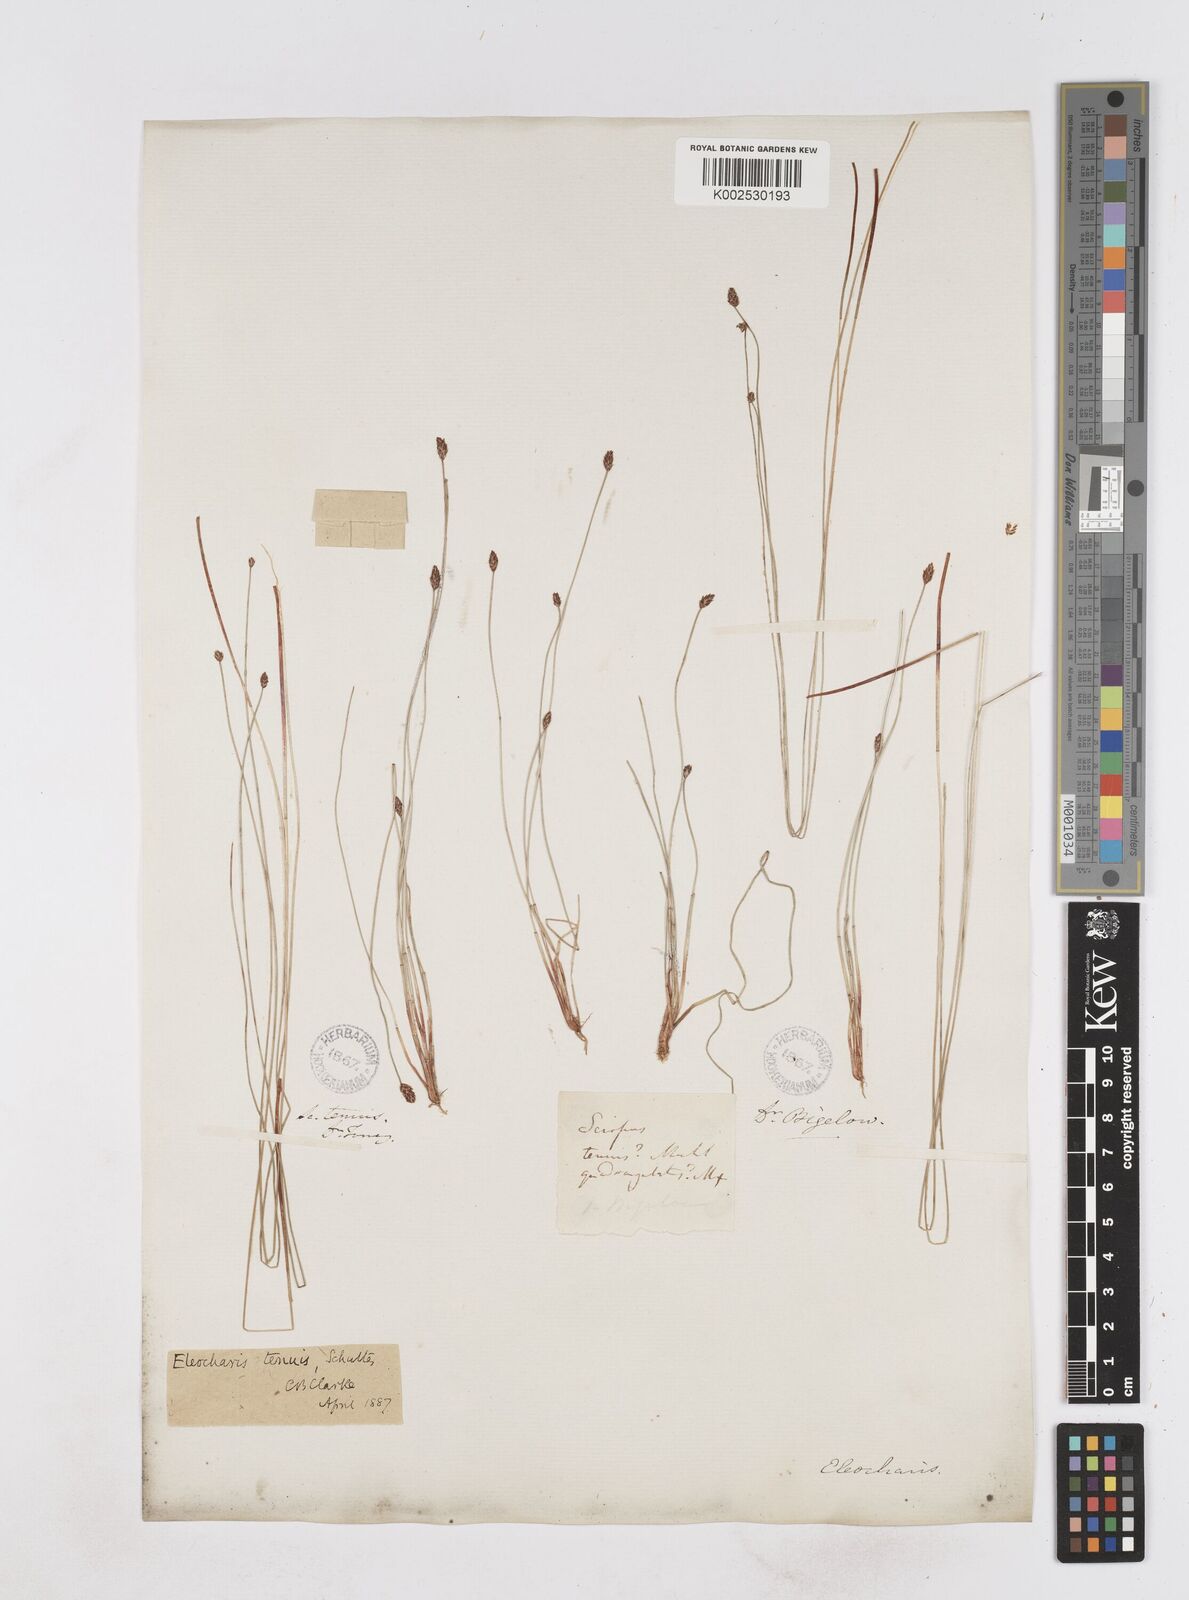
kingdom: Plantae
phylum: Tracheophyta
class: Liliopsida
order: Poales
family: Cyperaceae
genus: Eleocharis
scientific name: Eleocharis tenuis
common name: Dog's hair
